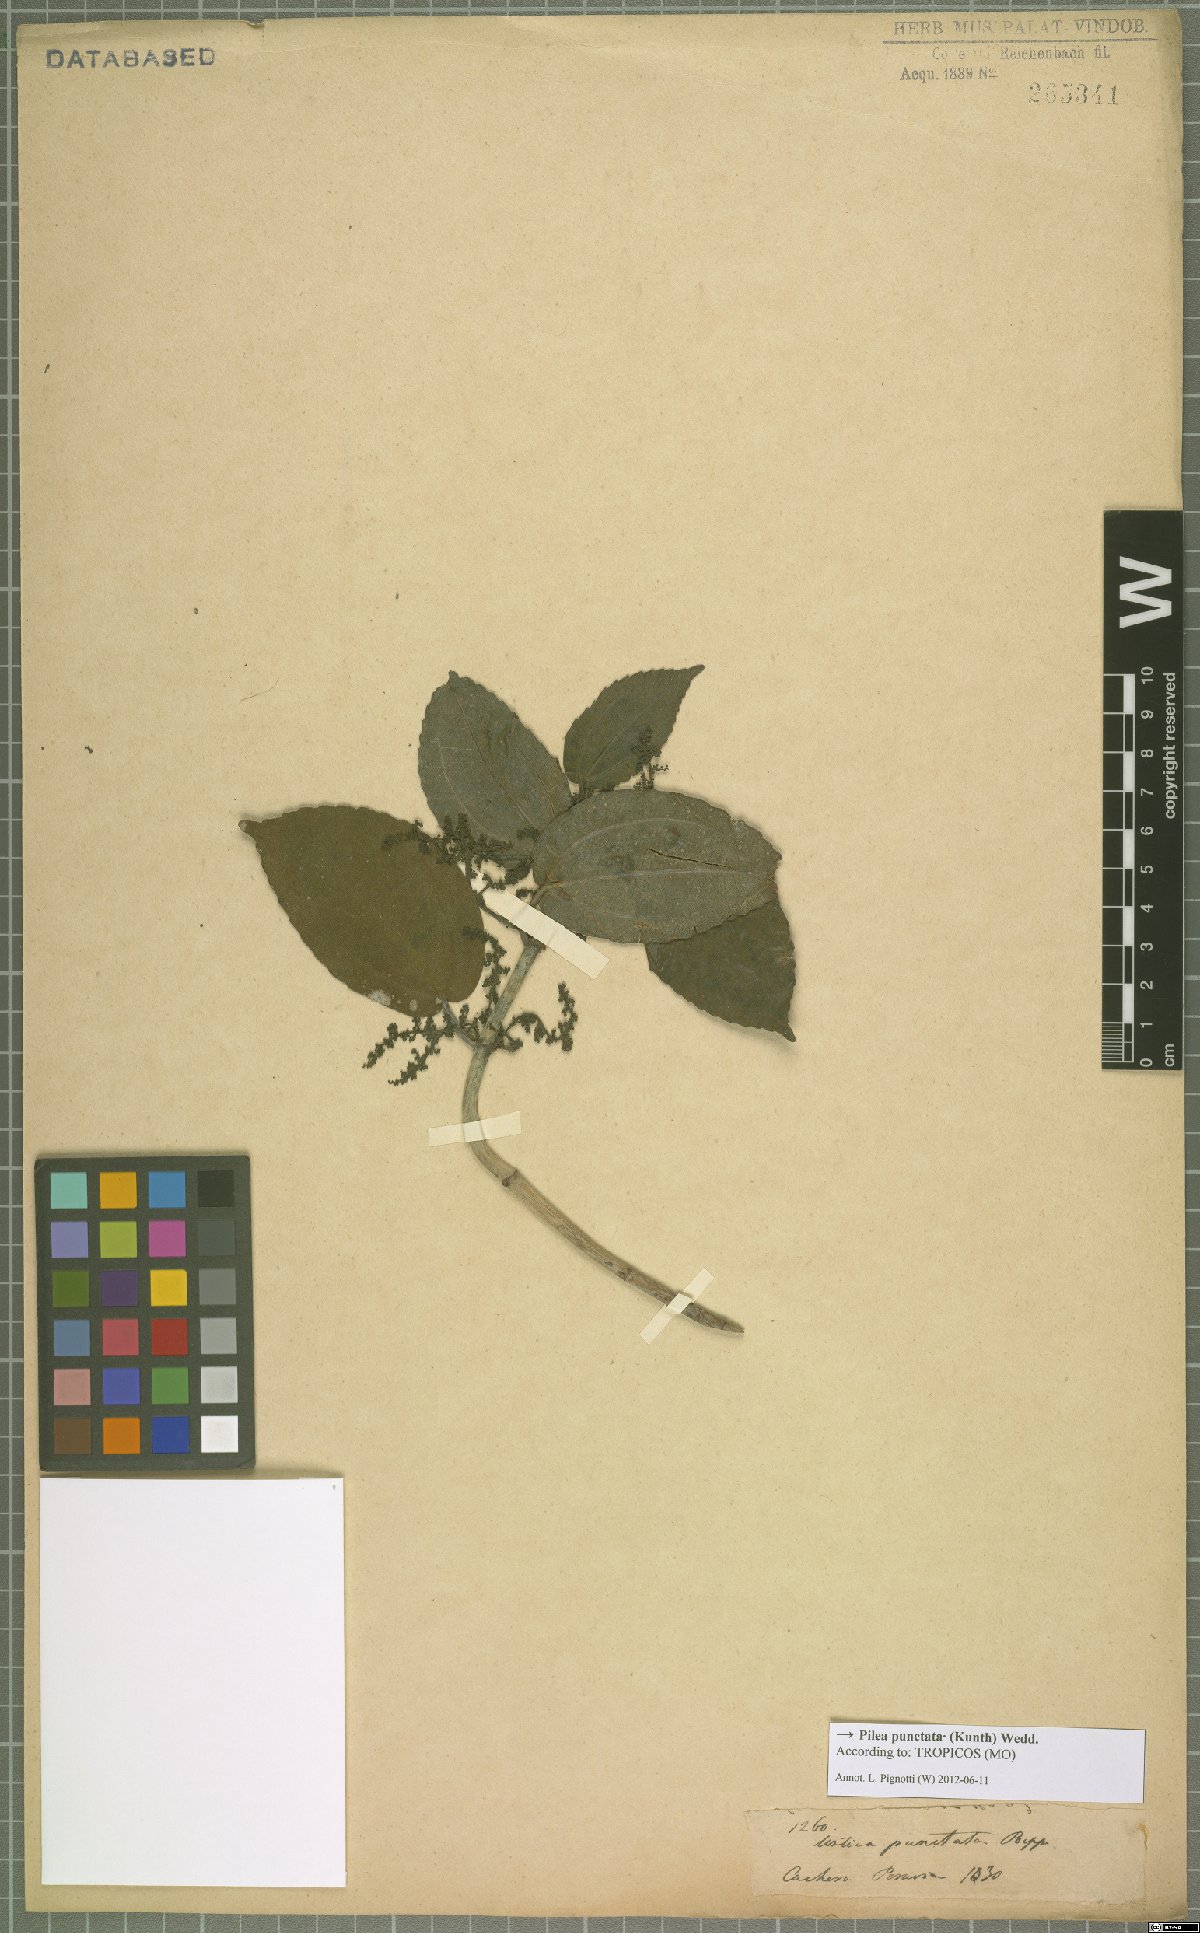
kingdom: Plantae
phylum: Tracheophyta
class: Magnoliopsida
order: Rosales
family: Urticaceae
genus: Pilea
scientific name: Pilea punctata
